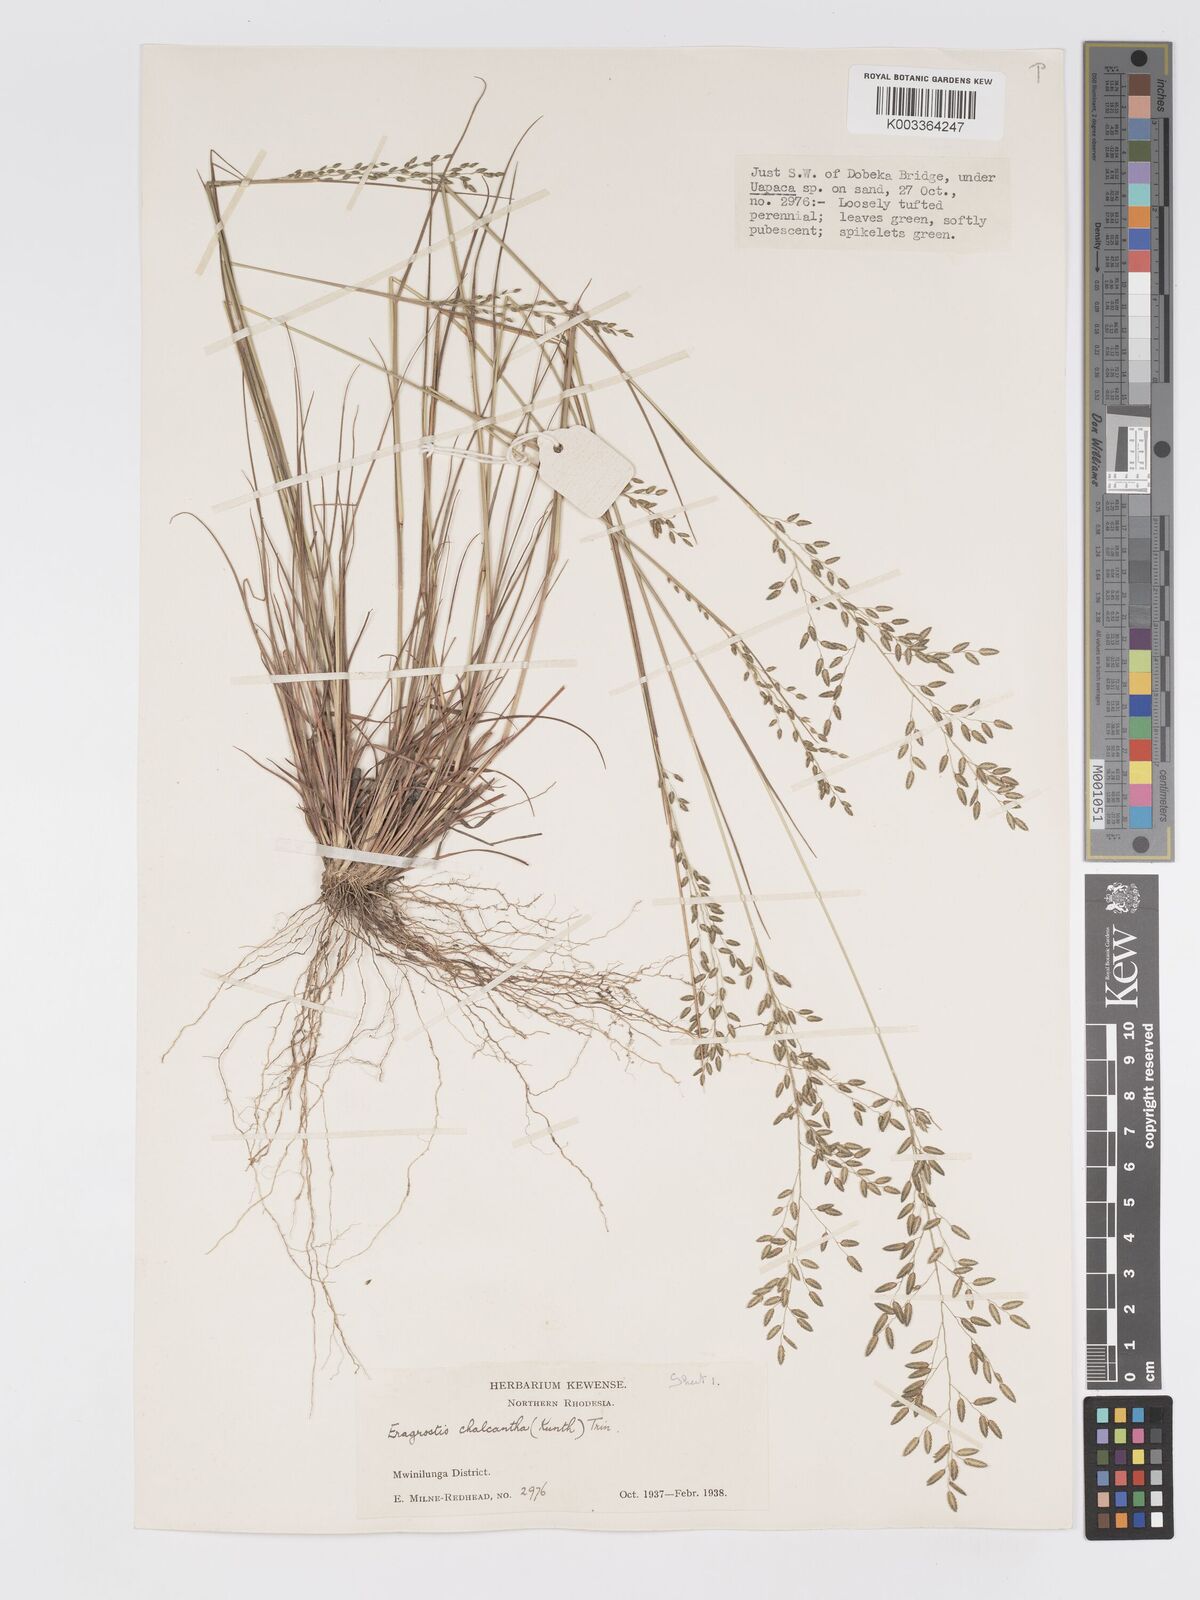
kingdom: Plantae
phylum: Tracheophyta
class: Liliopsida
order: Poales
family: Poaceae
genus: Eragrostis
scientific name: Eragrostis racemosa
